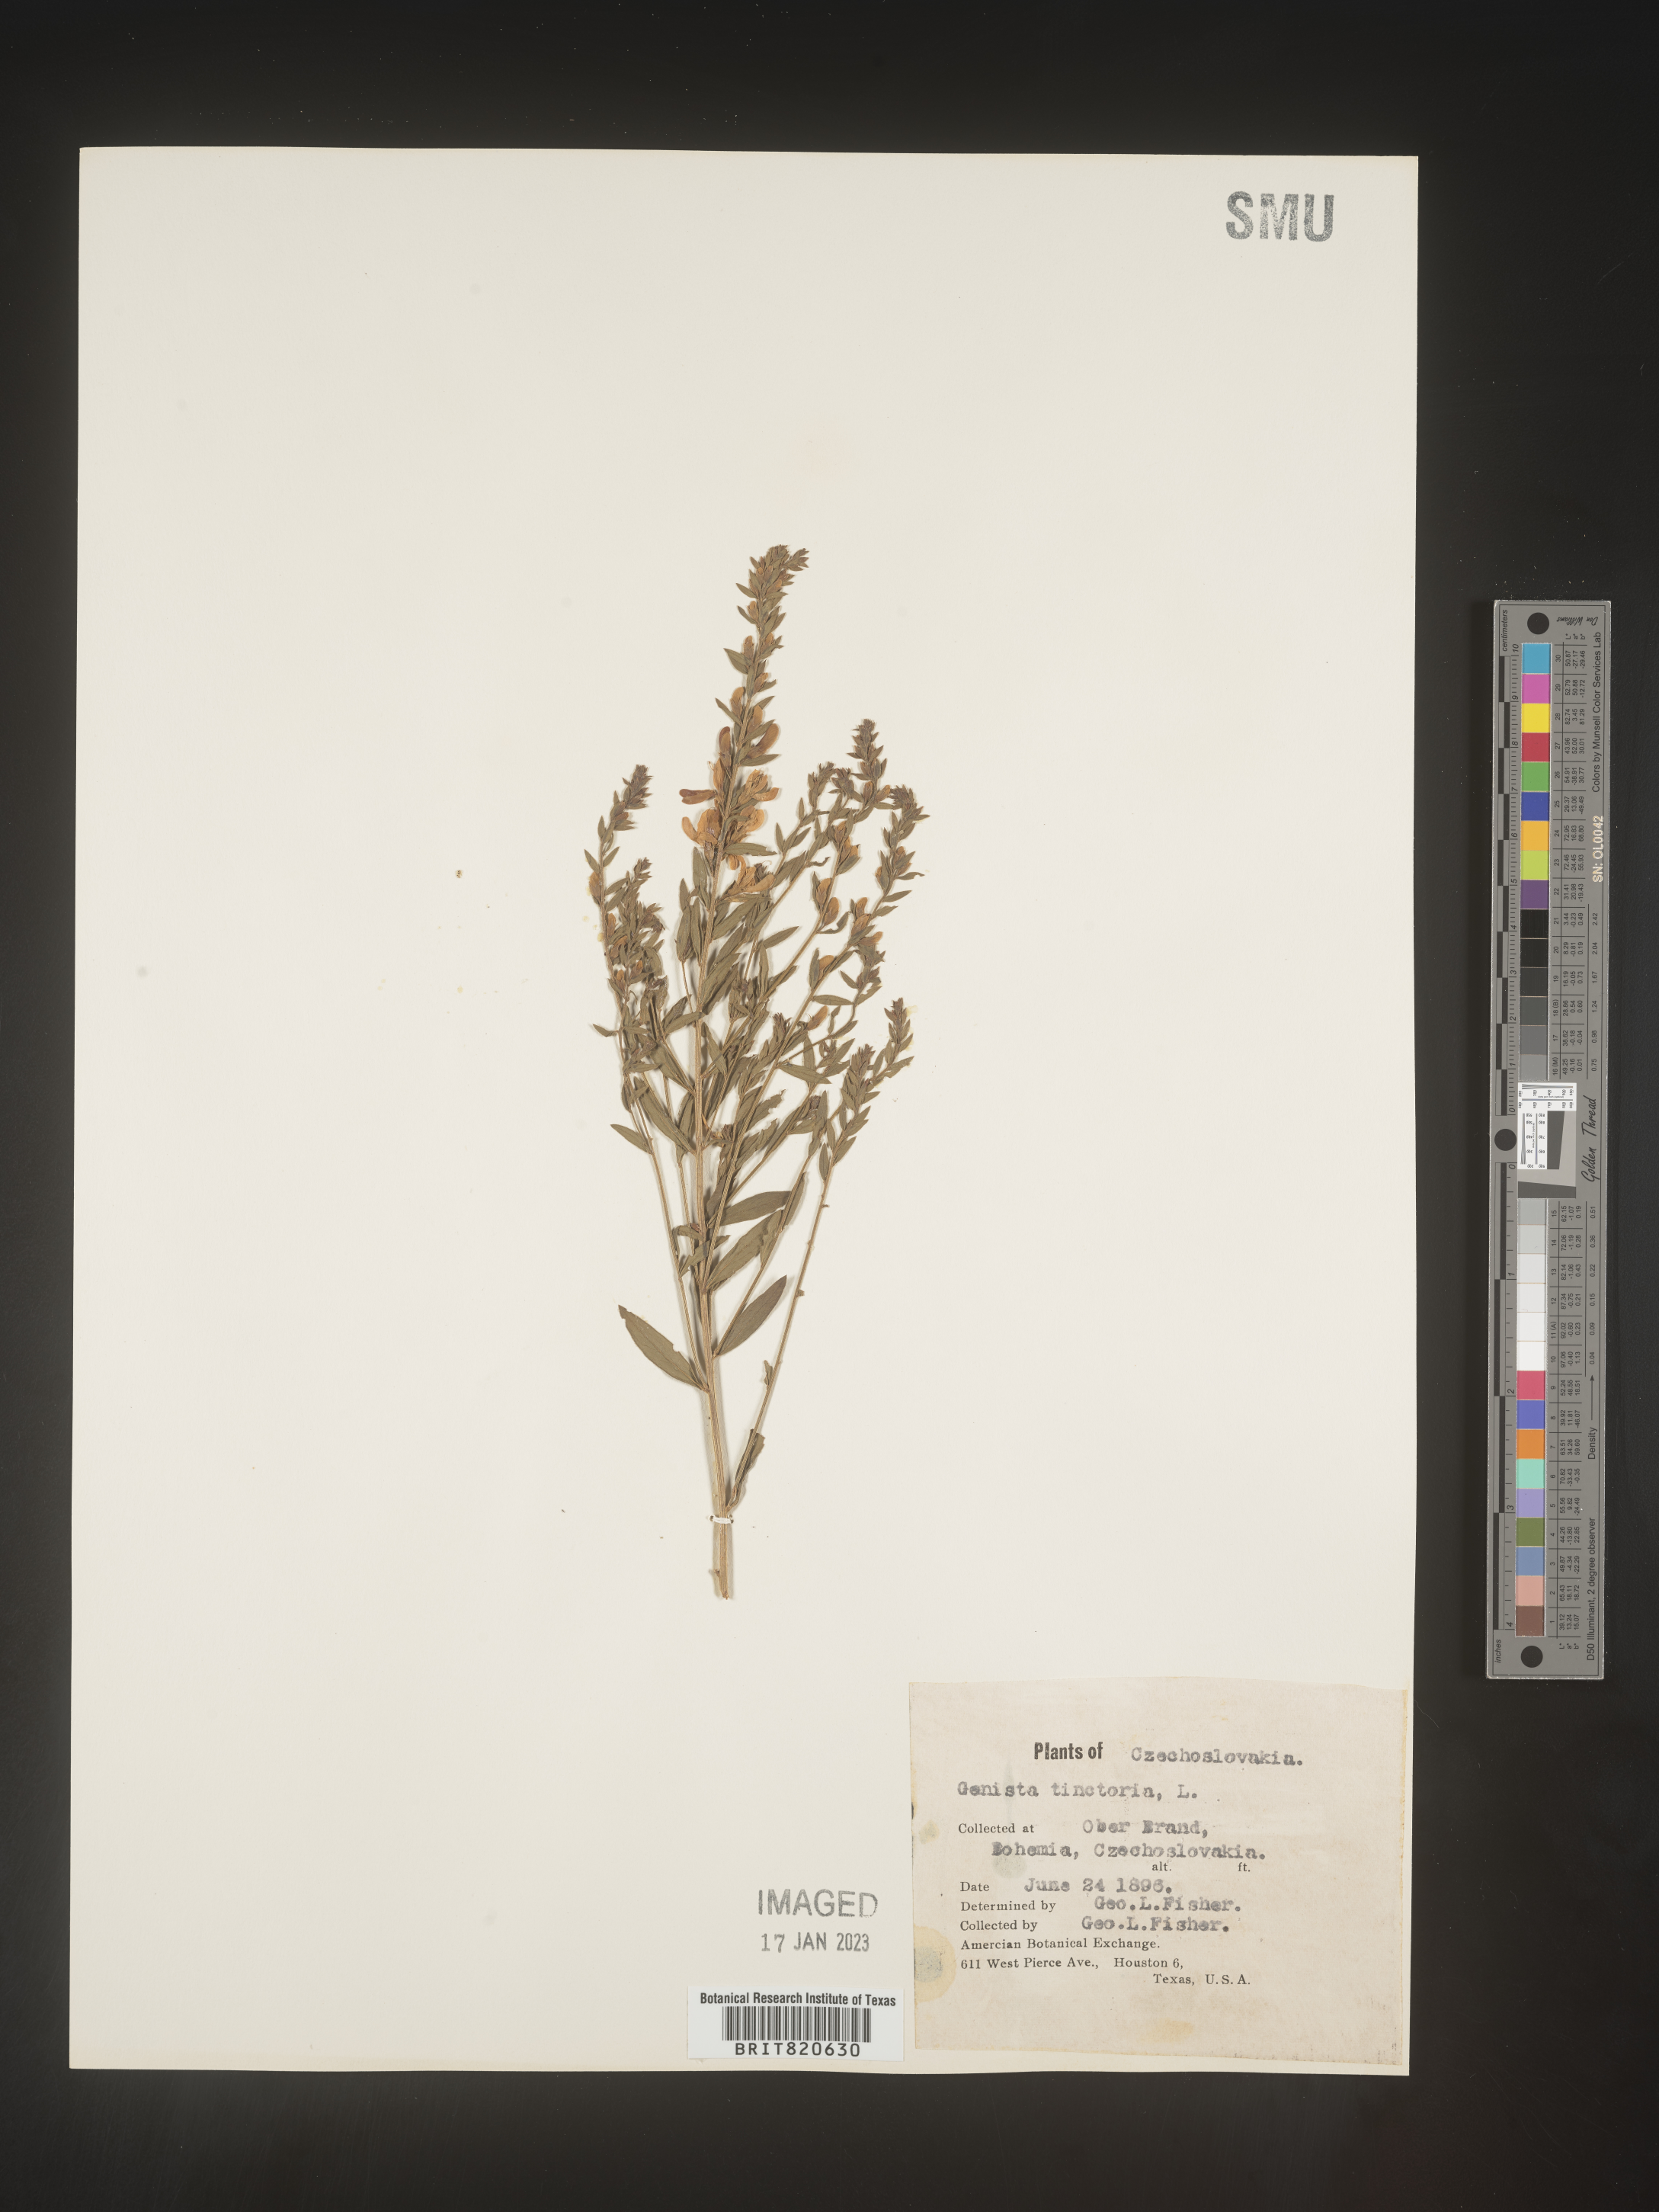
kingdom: Plantae
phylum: Tracheophyta
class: Magnoliopsida
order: Fabales
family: Fabaceae
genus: Genista
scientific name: Genista tinctoria
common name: Dyer's greenweed
